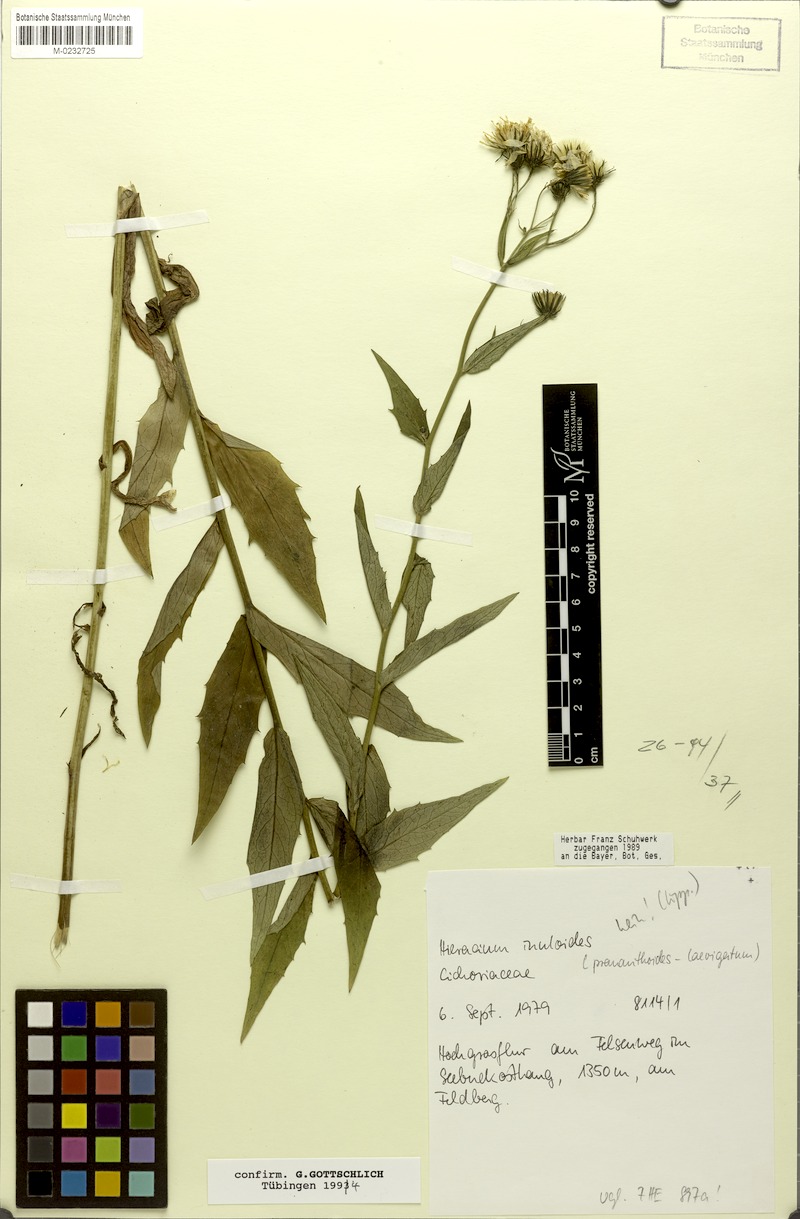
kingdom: Plantae
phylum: Tracheophyta
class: Magnoliopsida
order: Asterales
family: Asteraceae
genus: Hieracium
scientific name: Hieracium inuloides
